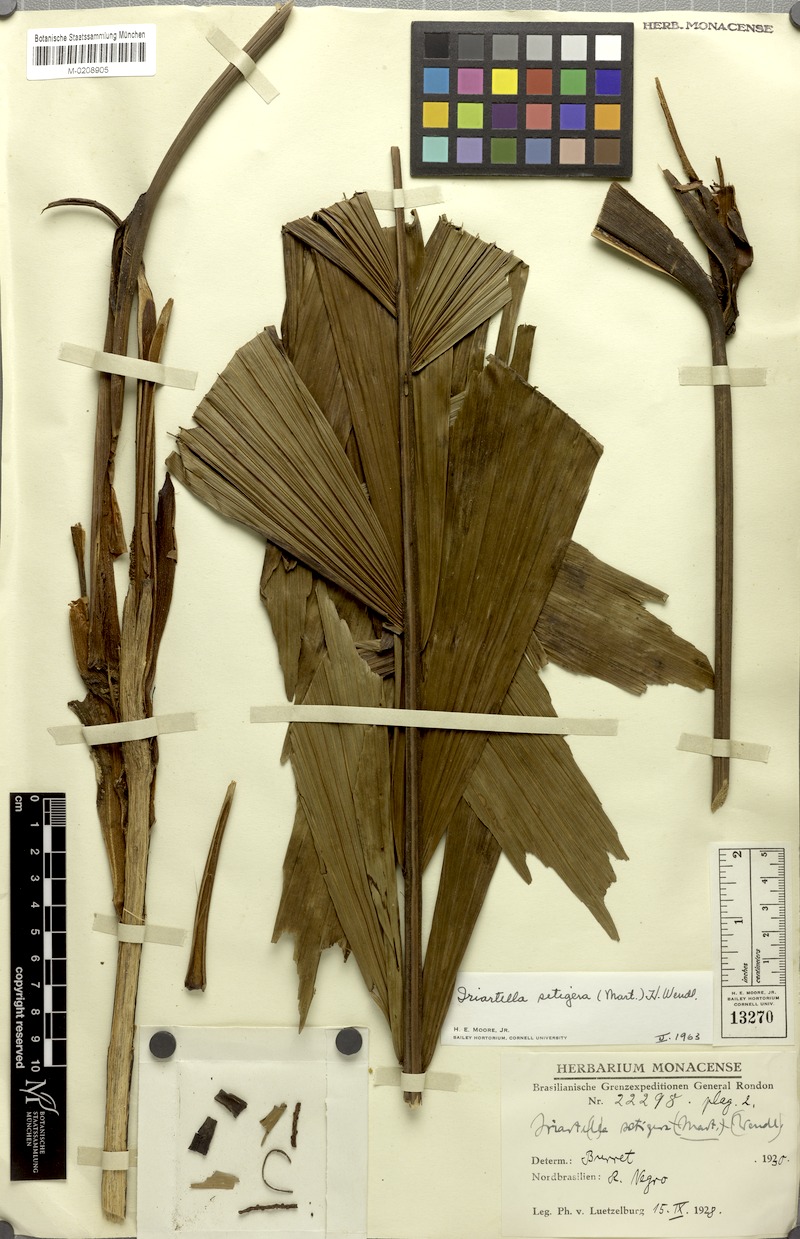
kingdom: Plantae
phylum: Tracheophyta
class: Liliopsida
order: Arecales
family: Arecaceae
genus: Iriartella
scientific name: Iriartella setigera
